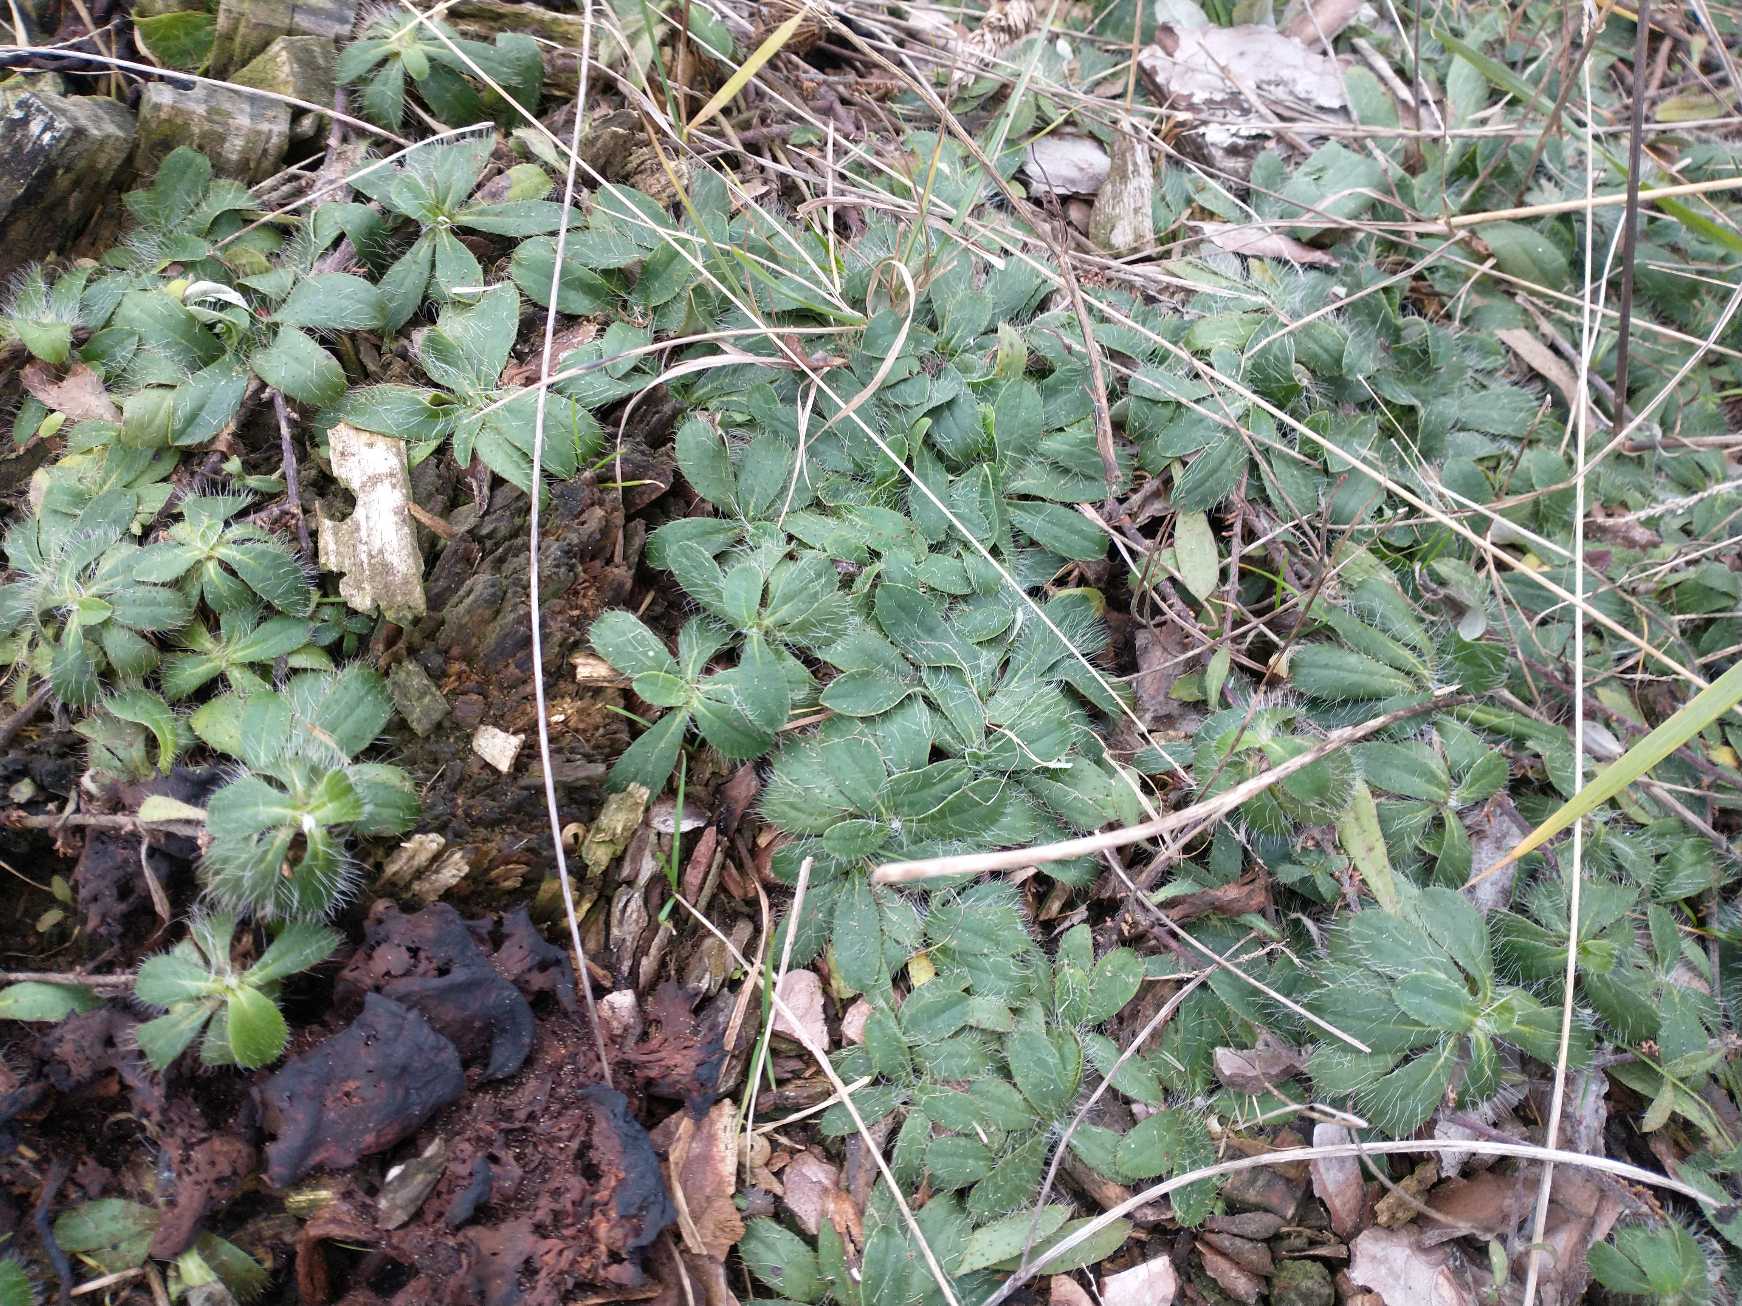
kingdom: Plantae
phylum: Tracheophyta
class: Magnoliopsida
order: Asterales
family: Asteraceae
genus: Pilosella
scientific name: Pilosella officinarum
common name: Håret høgeurt
